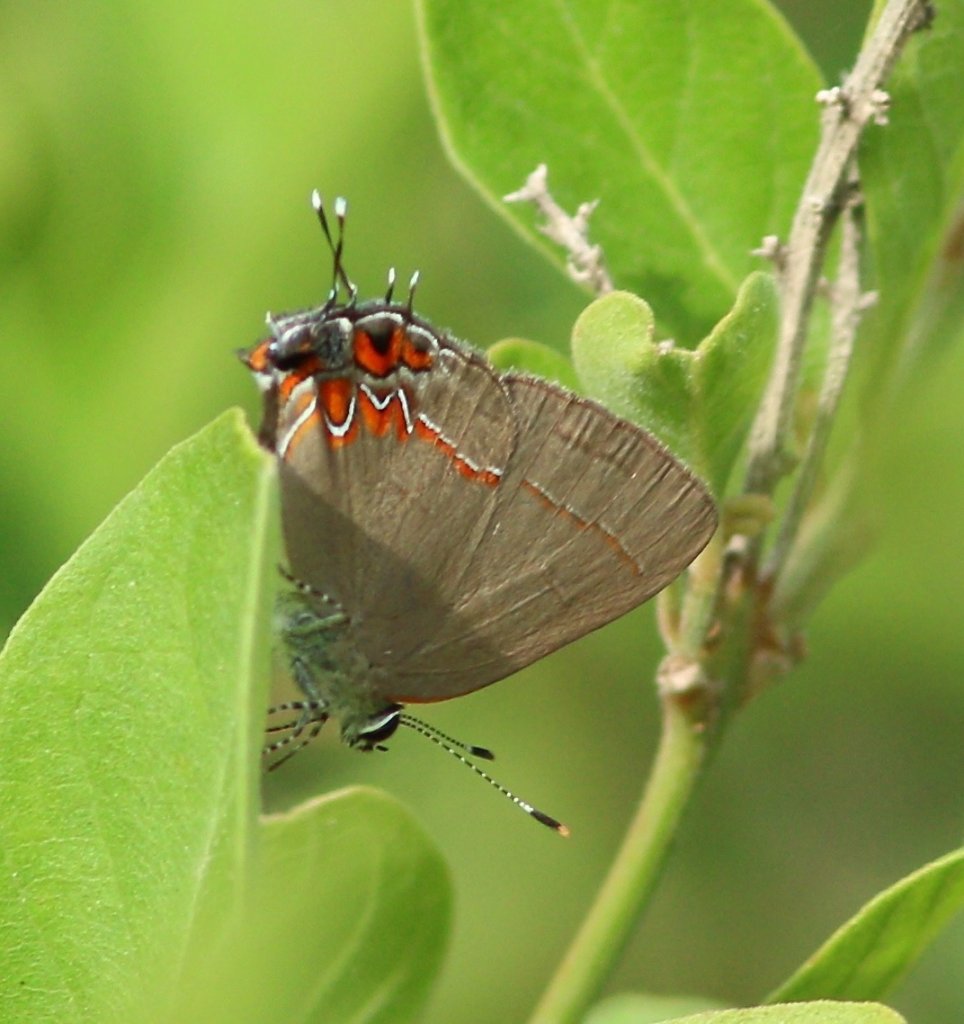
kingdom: Animalia
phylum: Arthropoda
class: Insecta
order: Lepidoptera
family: Lycaenidae
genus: Calycopis
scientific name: Calycopis isobeon
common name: Dusky-blue Groundstreak
